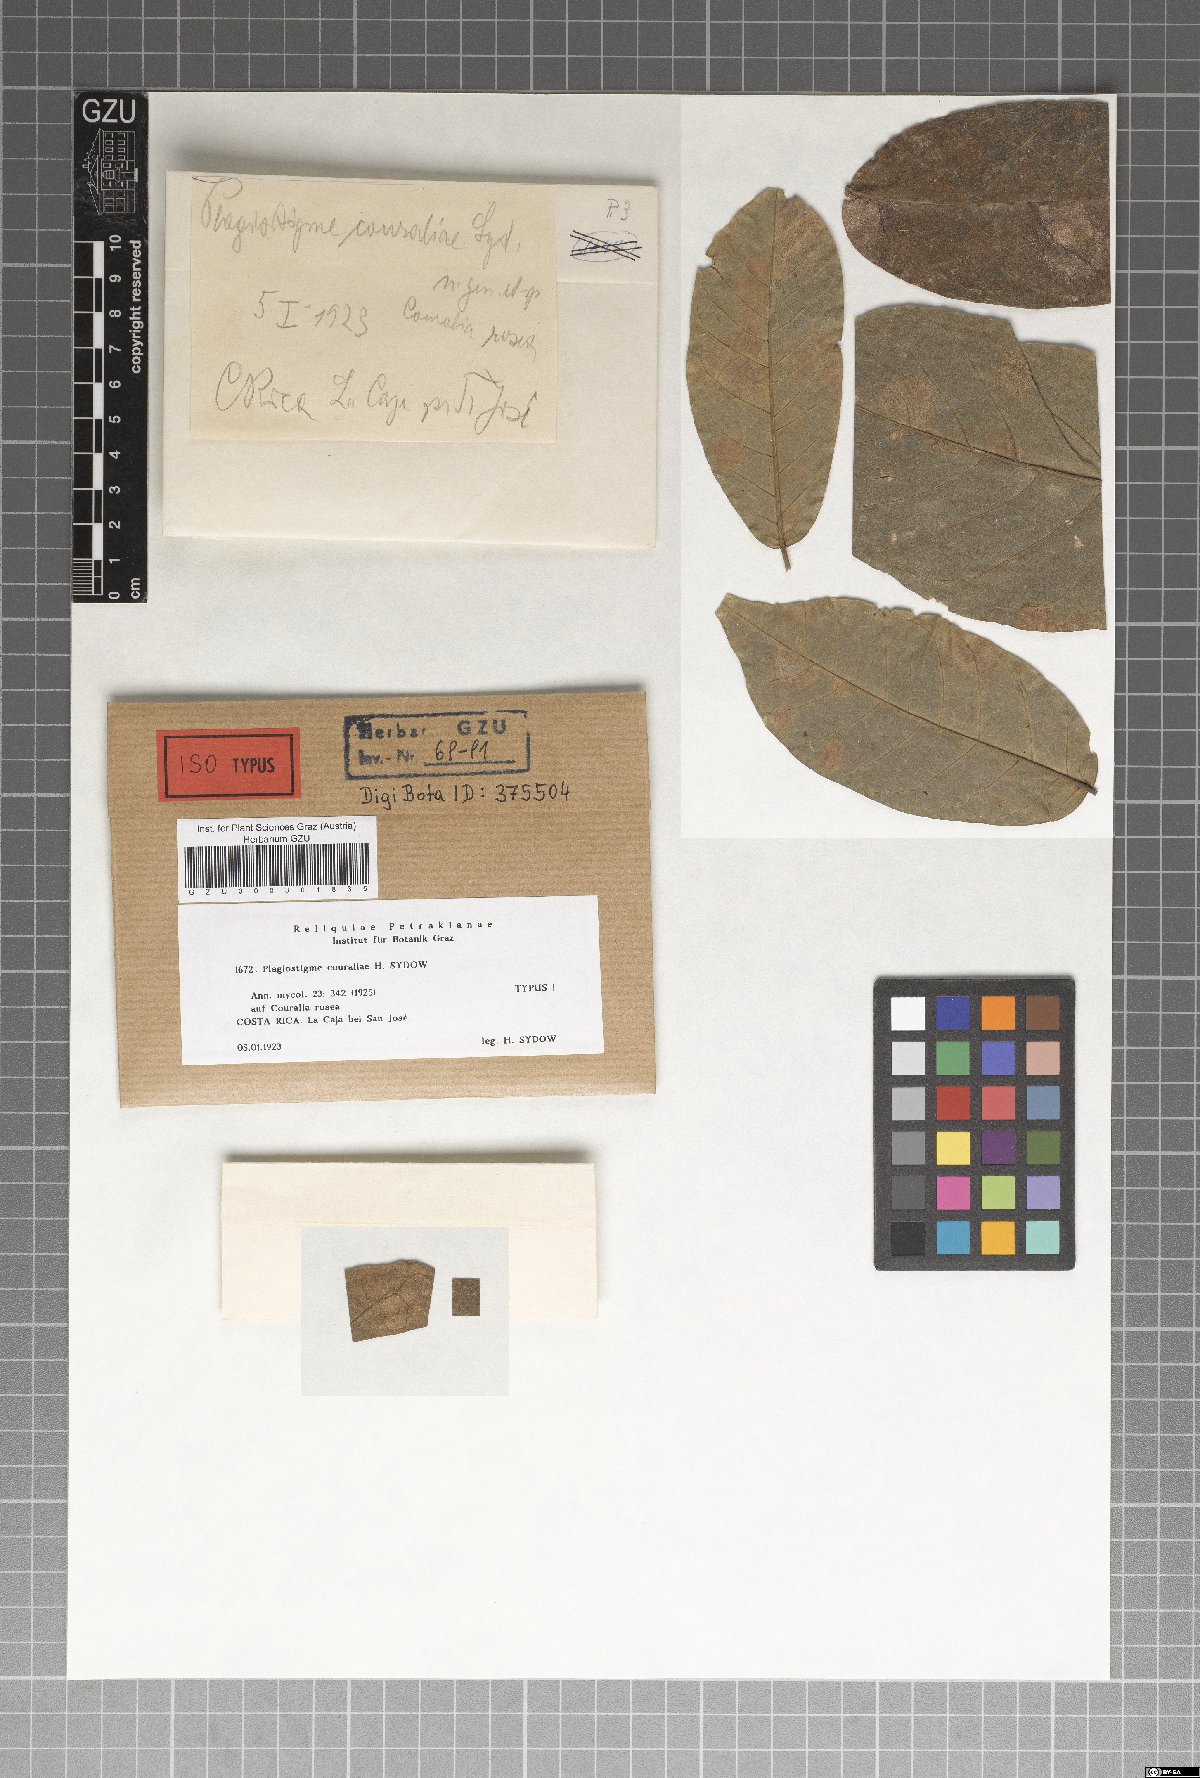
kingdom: Fungi
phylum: Ascomycota
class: Sordariomycetes
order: Diaporthales
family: Melanconidaceae
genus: Plagiostigme
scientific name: Plagiostigme couraliae
